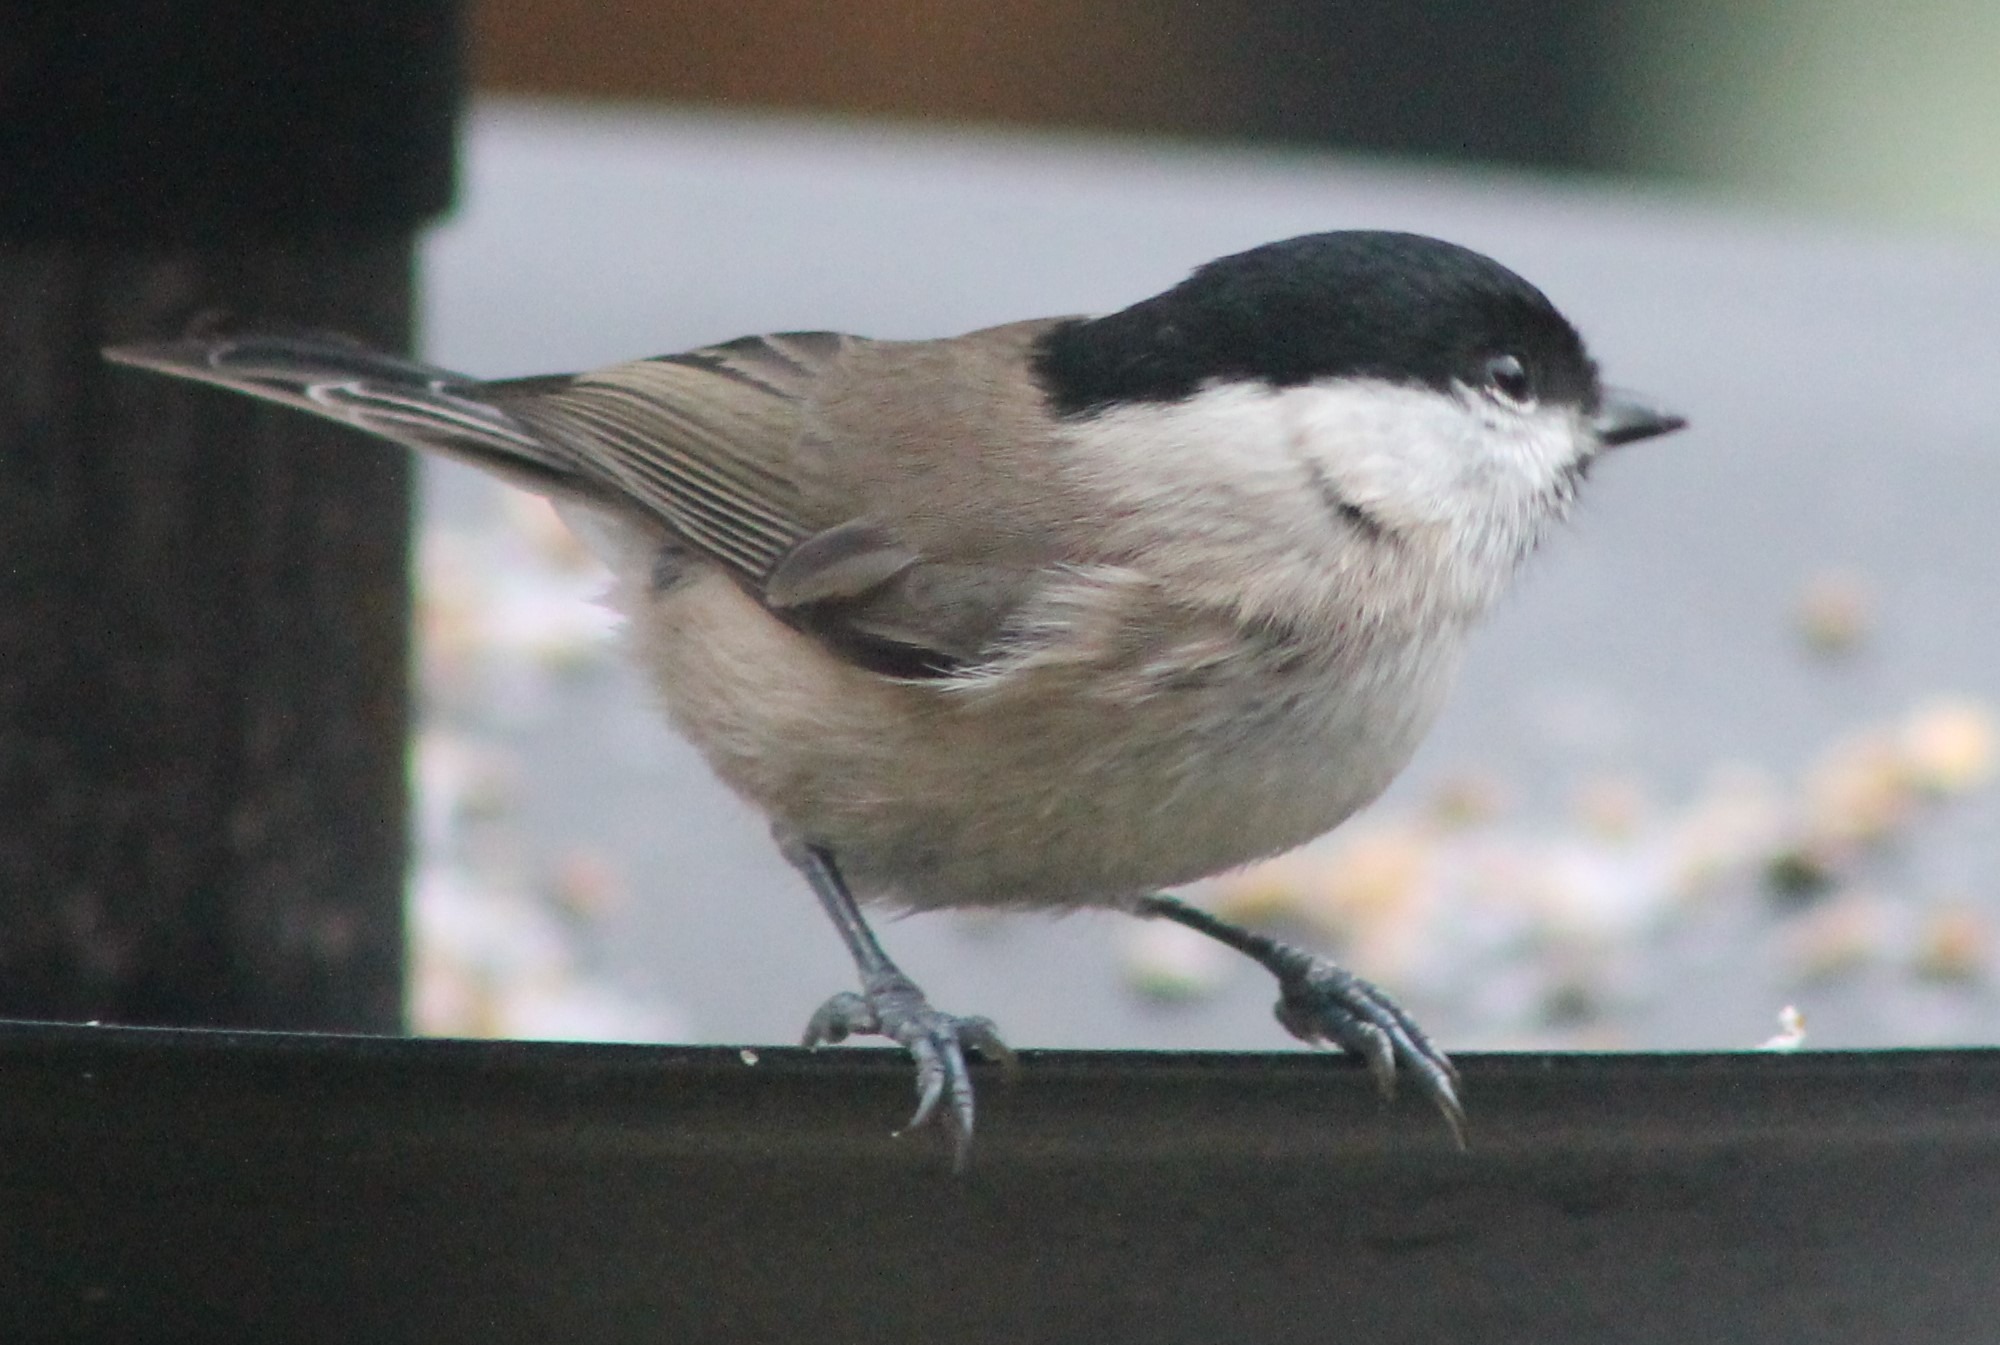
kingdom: Animalia
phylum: Chordata
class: Aves
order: Passeriformes
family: Paridae
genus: Poecile
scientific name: Poecile palustris
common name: Sumpmejse
